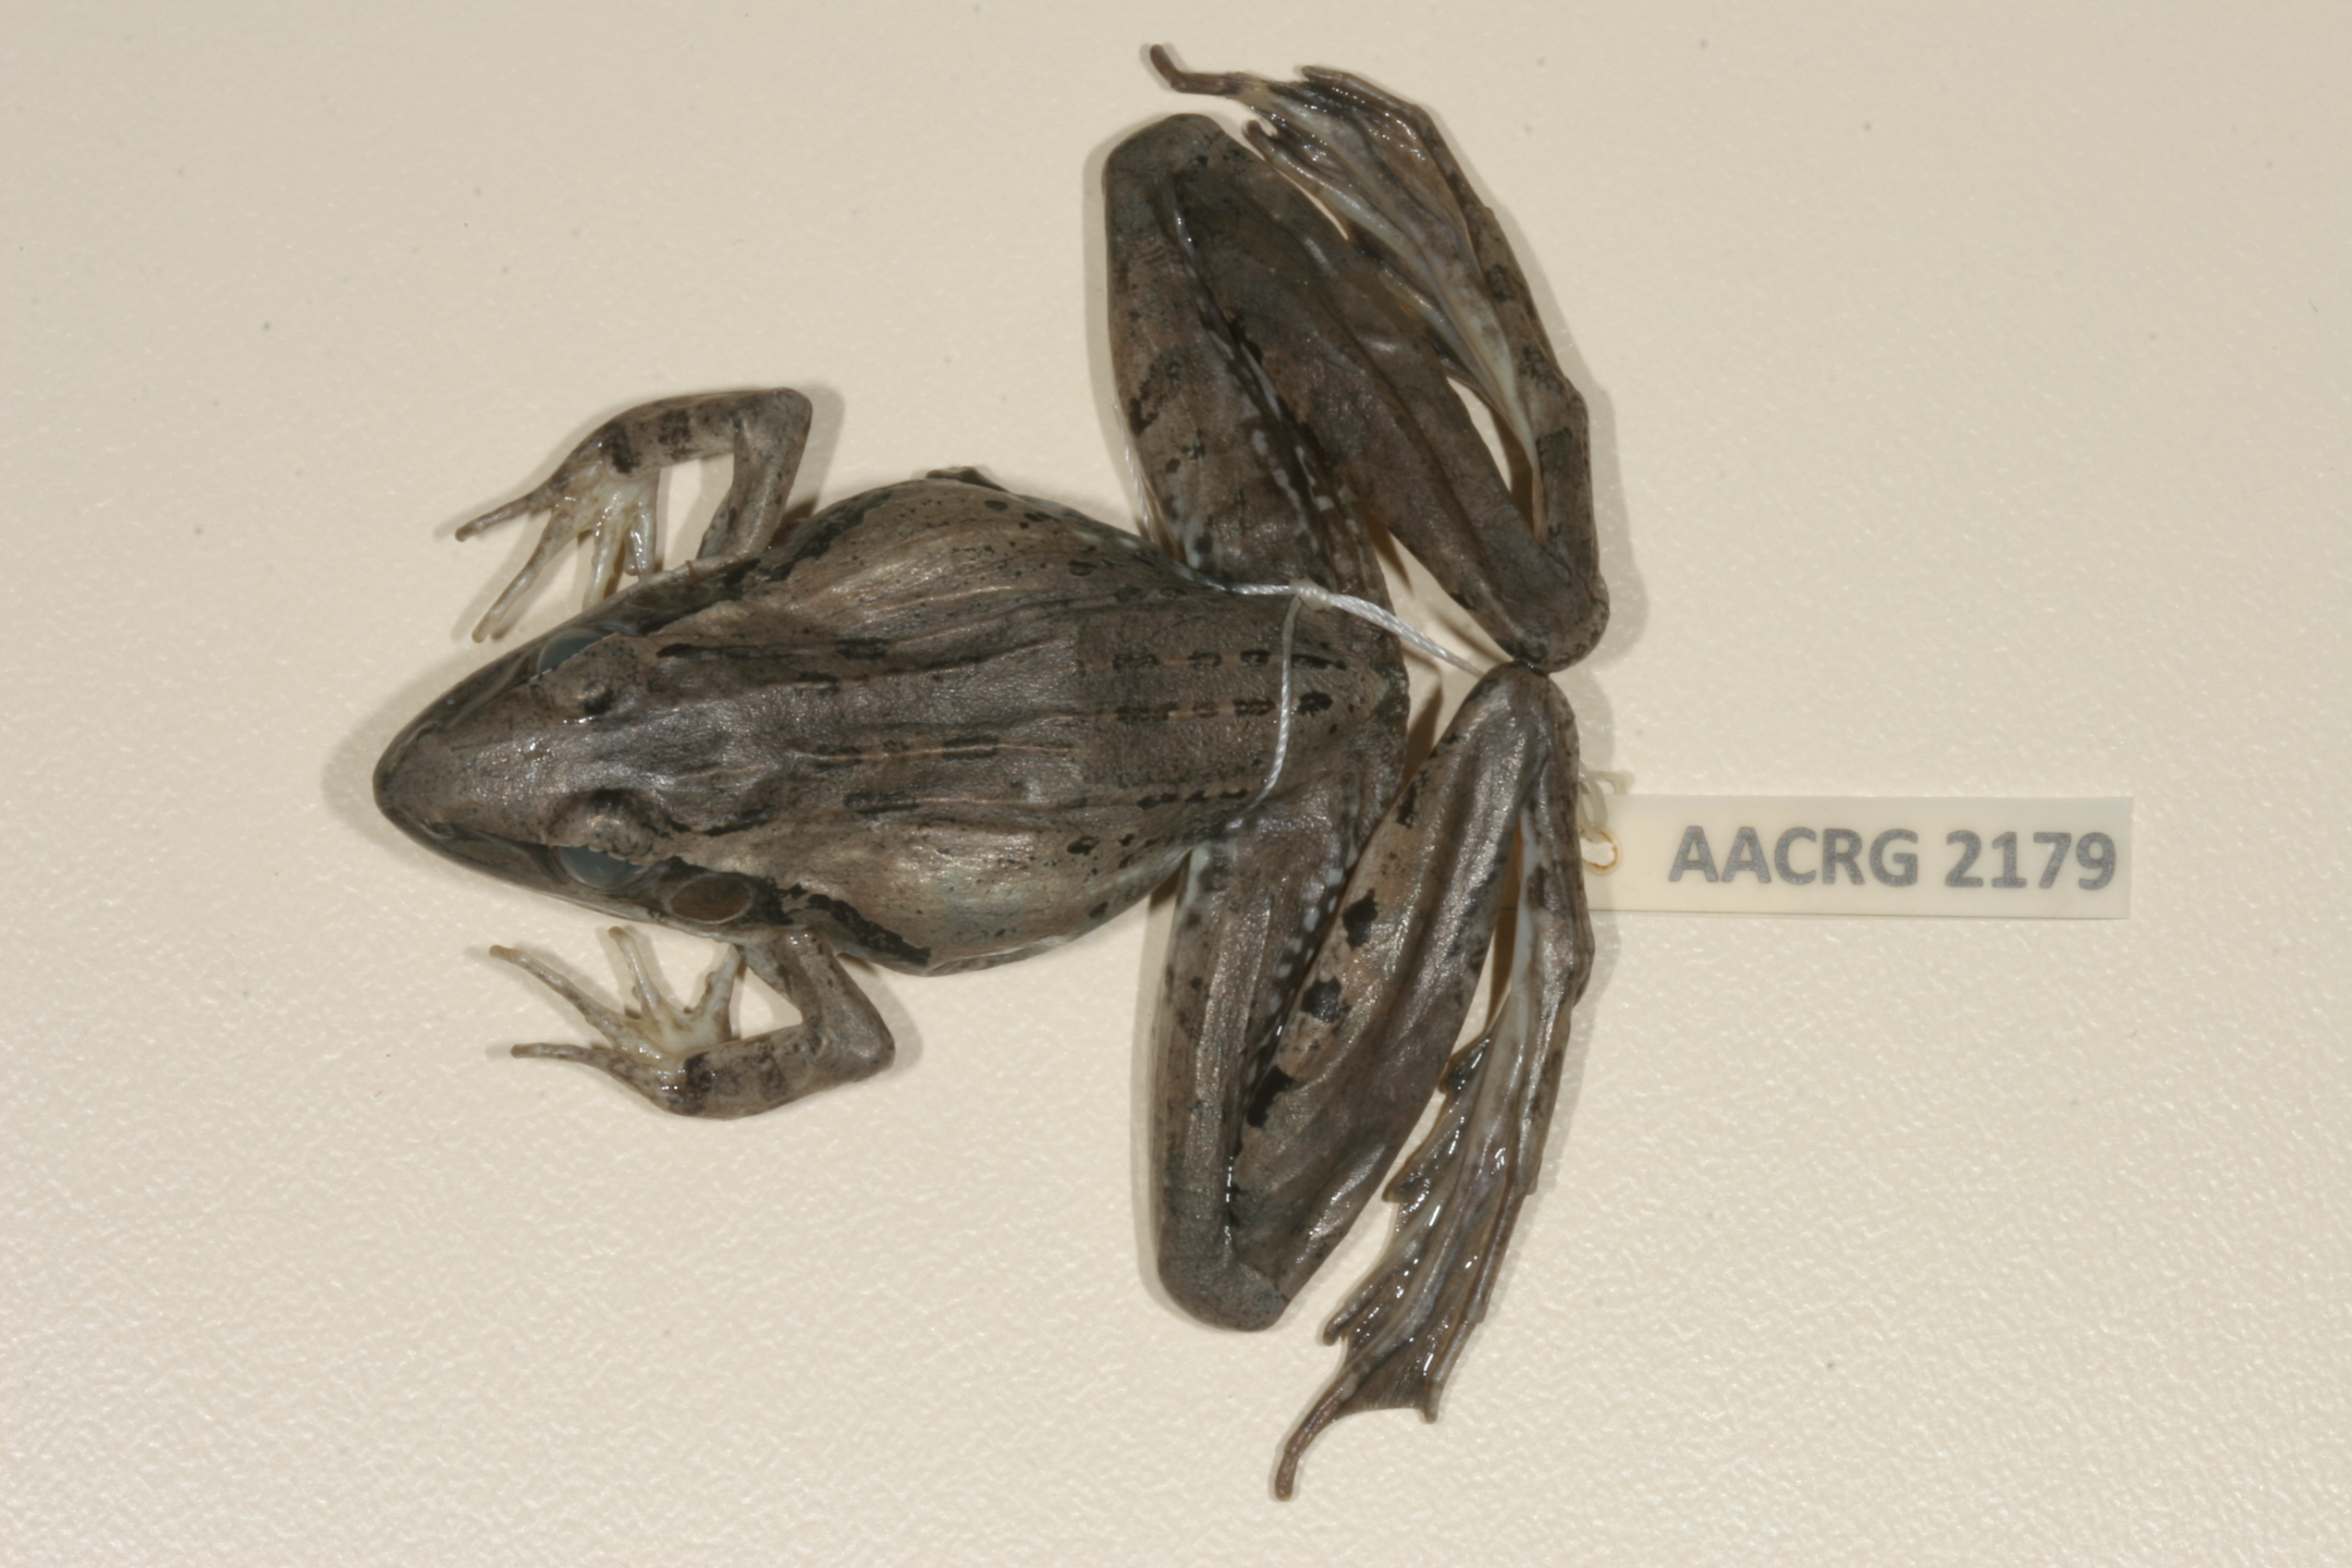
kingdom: Animalia
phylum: Chordata
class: Amphibia
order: Anura
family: Ptychadenidae
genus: Ptychadena
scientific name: Ptychadena anchietae
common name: Anchieta's ridged frog
